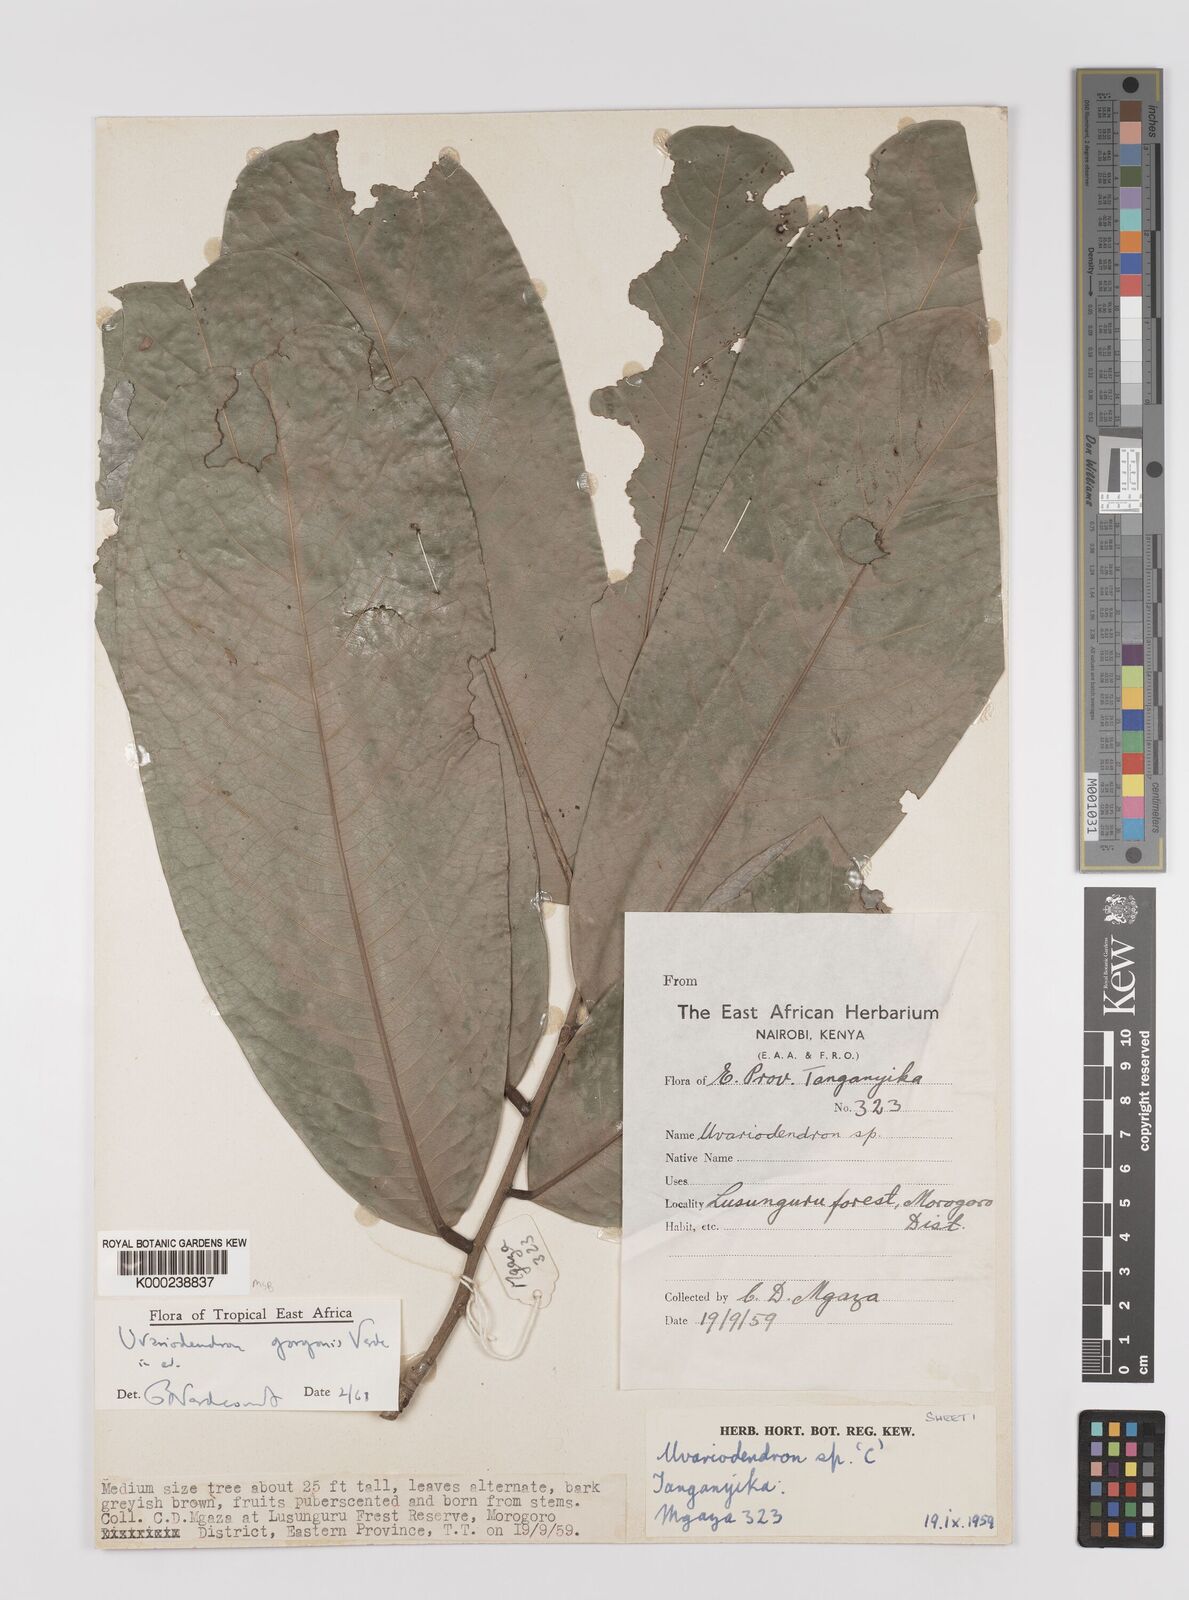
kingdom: Plantae
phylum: Tracheophyta
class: Magnoliopsida
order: Magnoliales
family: Annonaceae
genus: Uvariodendron
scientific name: Uvariodendron gorgonis
